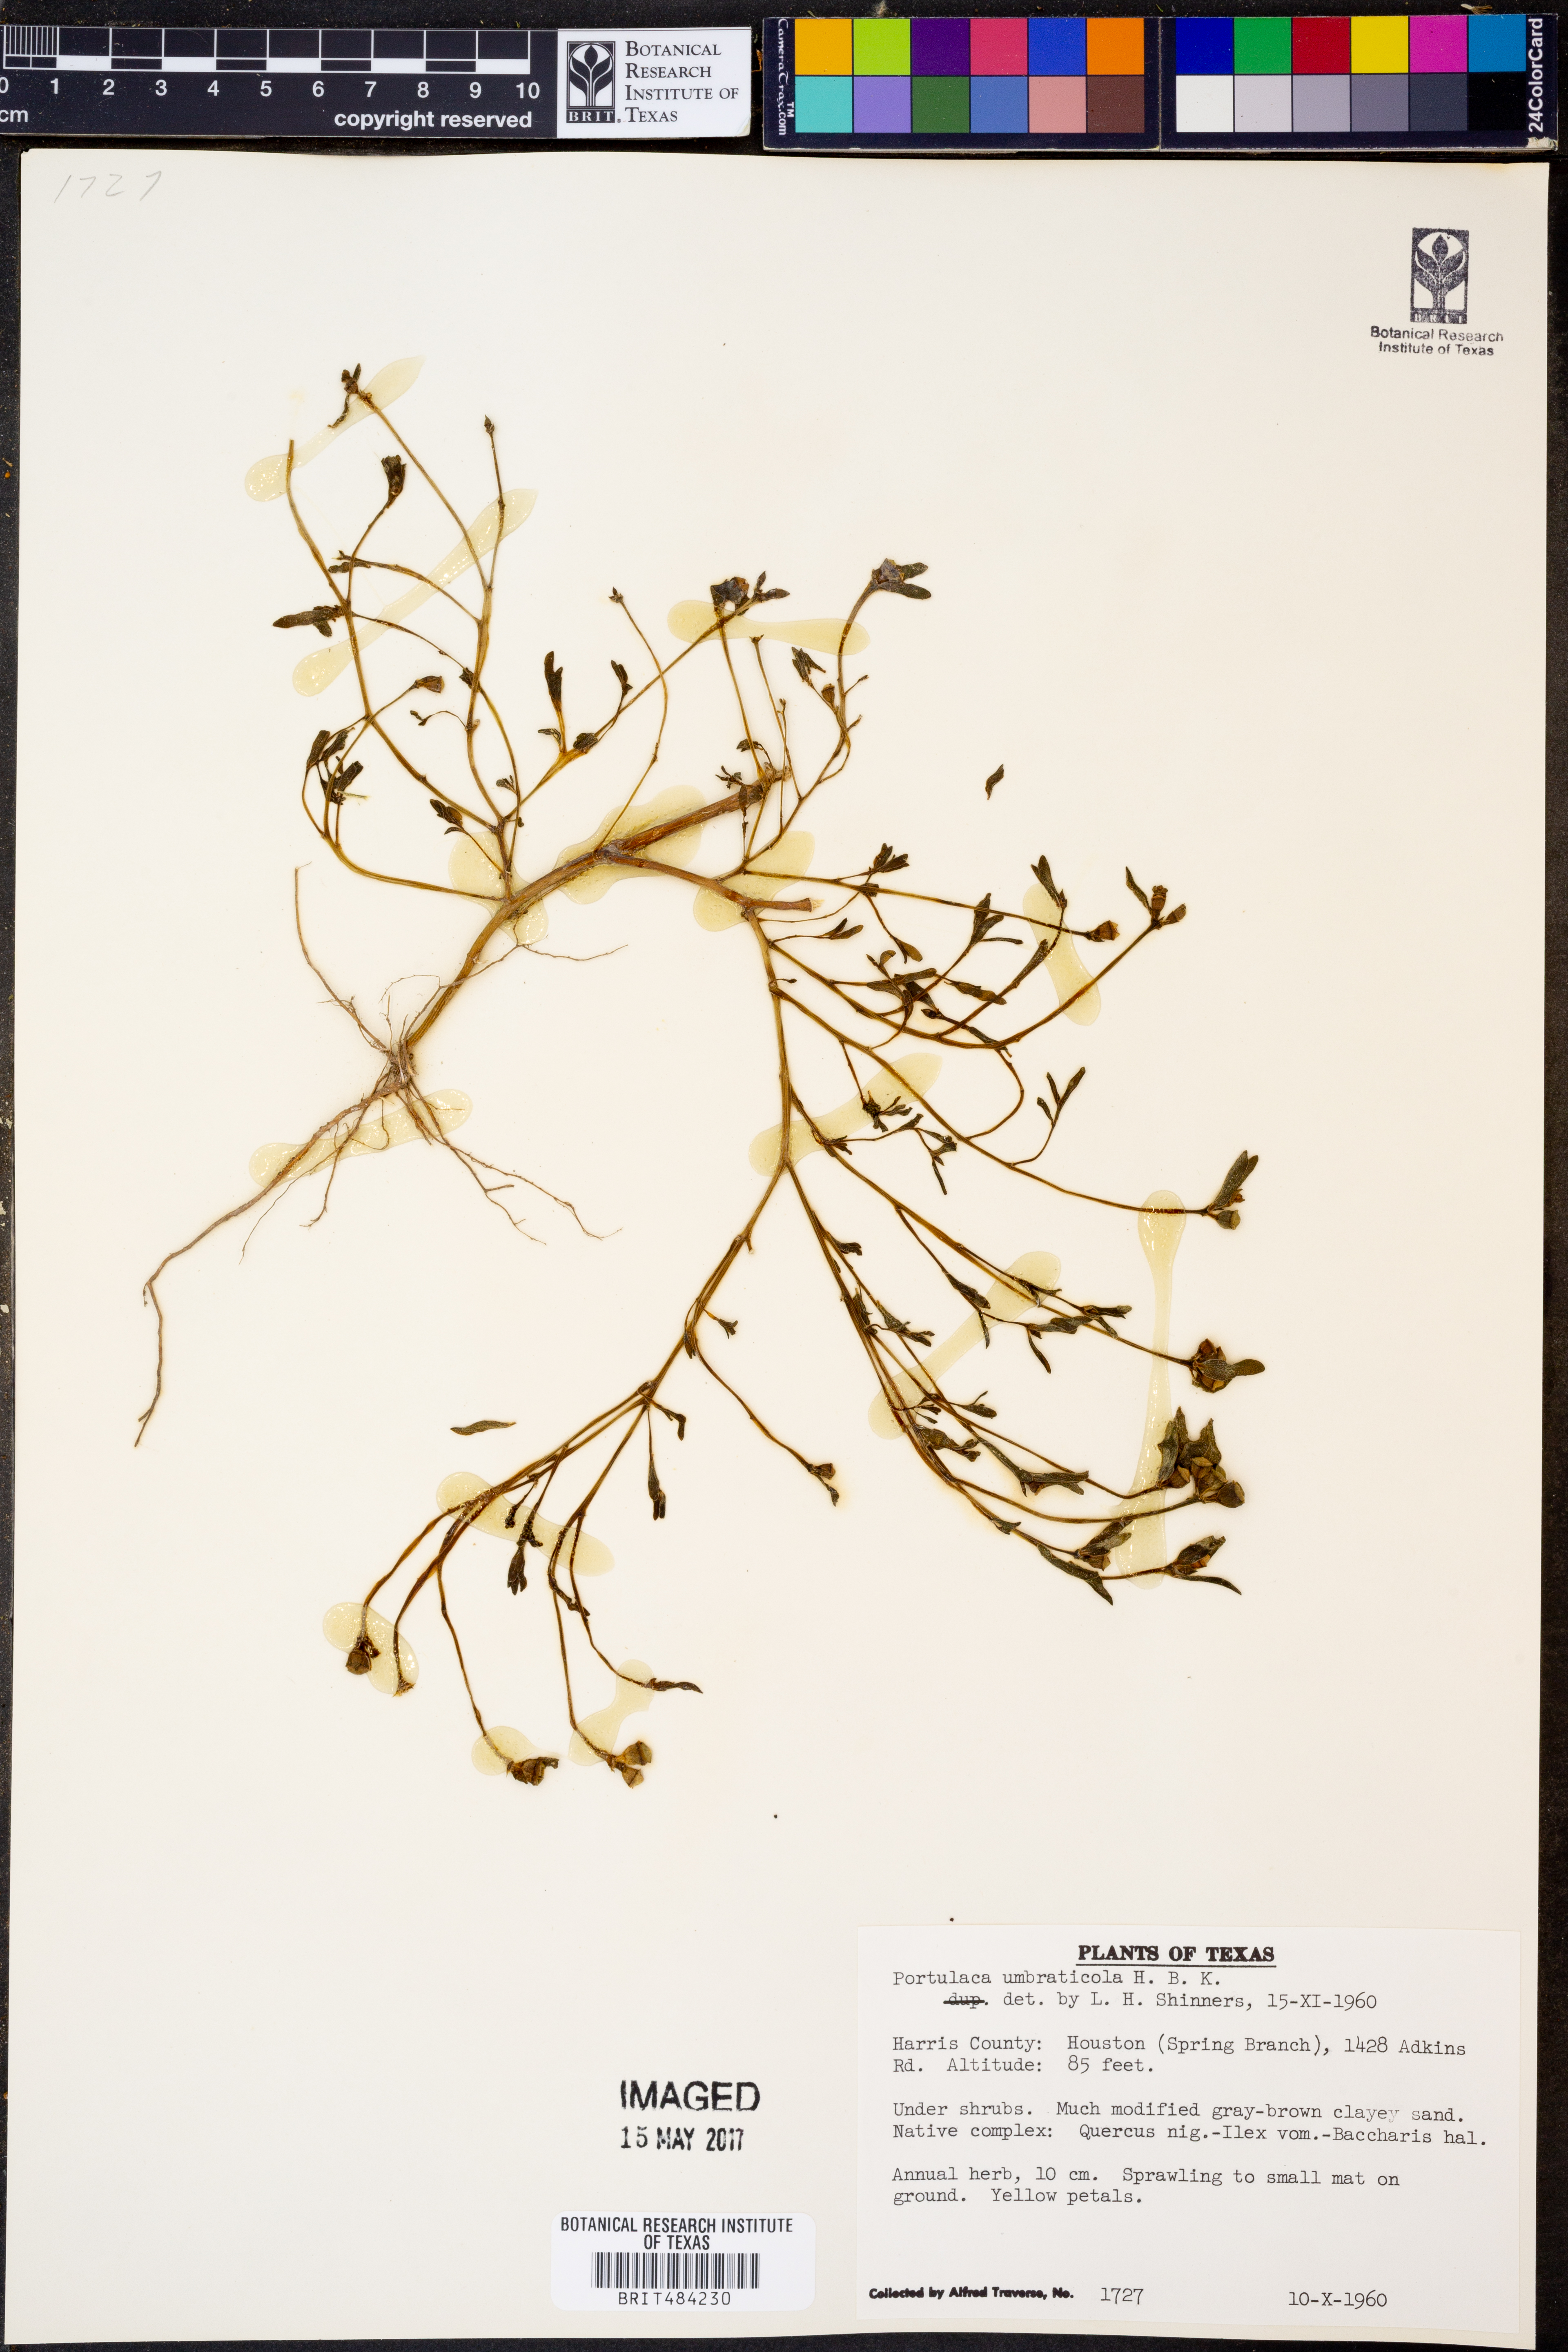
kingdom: Plantae
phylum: Tracheophyta
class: Magnoliopsida
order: Caryophyllales
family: Portulacaceae
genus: Portulaca
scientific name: Portulaca umbraticola
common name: Wingpod purslane
